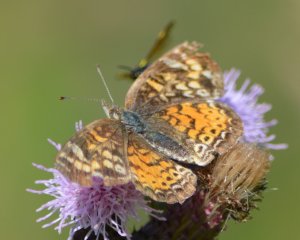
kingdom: Animalia
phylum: Arthropoda
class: Insecta
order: Lepidoptera
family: Nymphalidae
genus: Phyciodes
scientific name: Phyciodes tharos
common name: Northern Crescent
